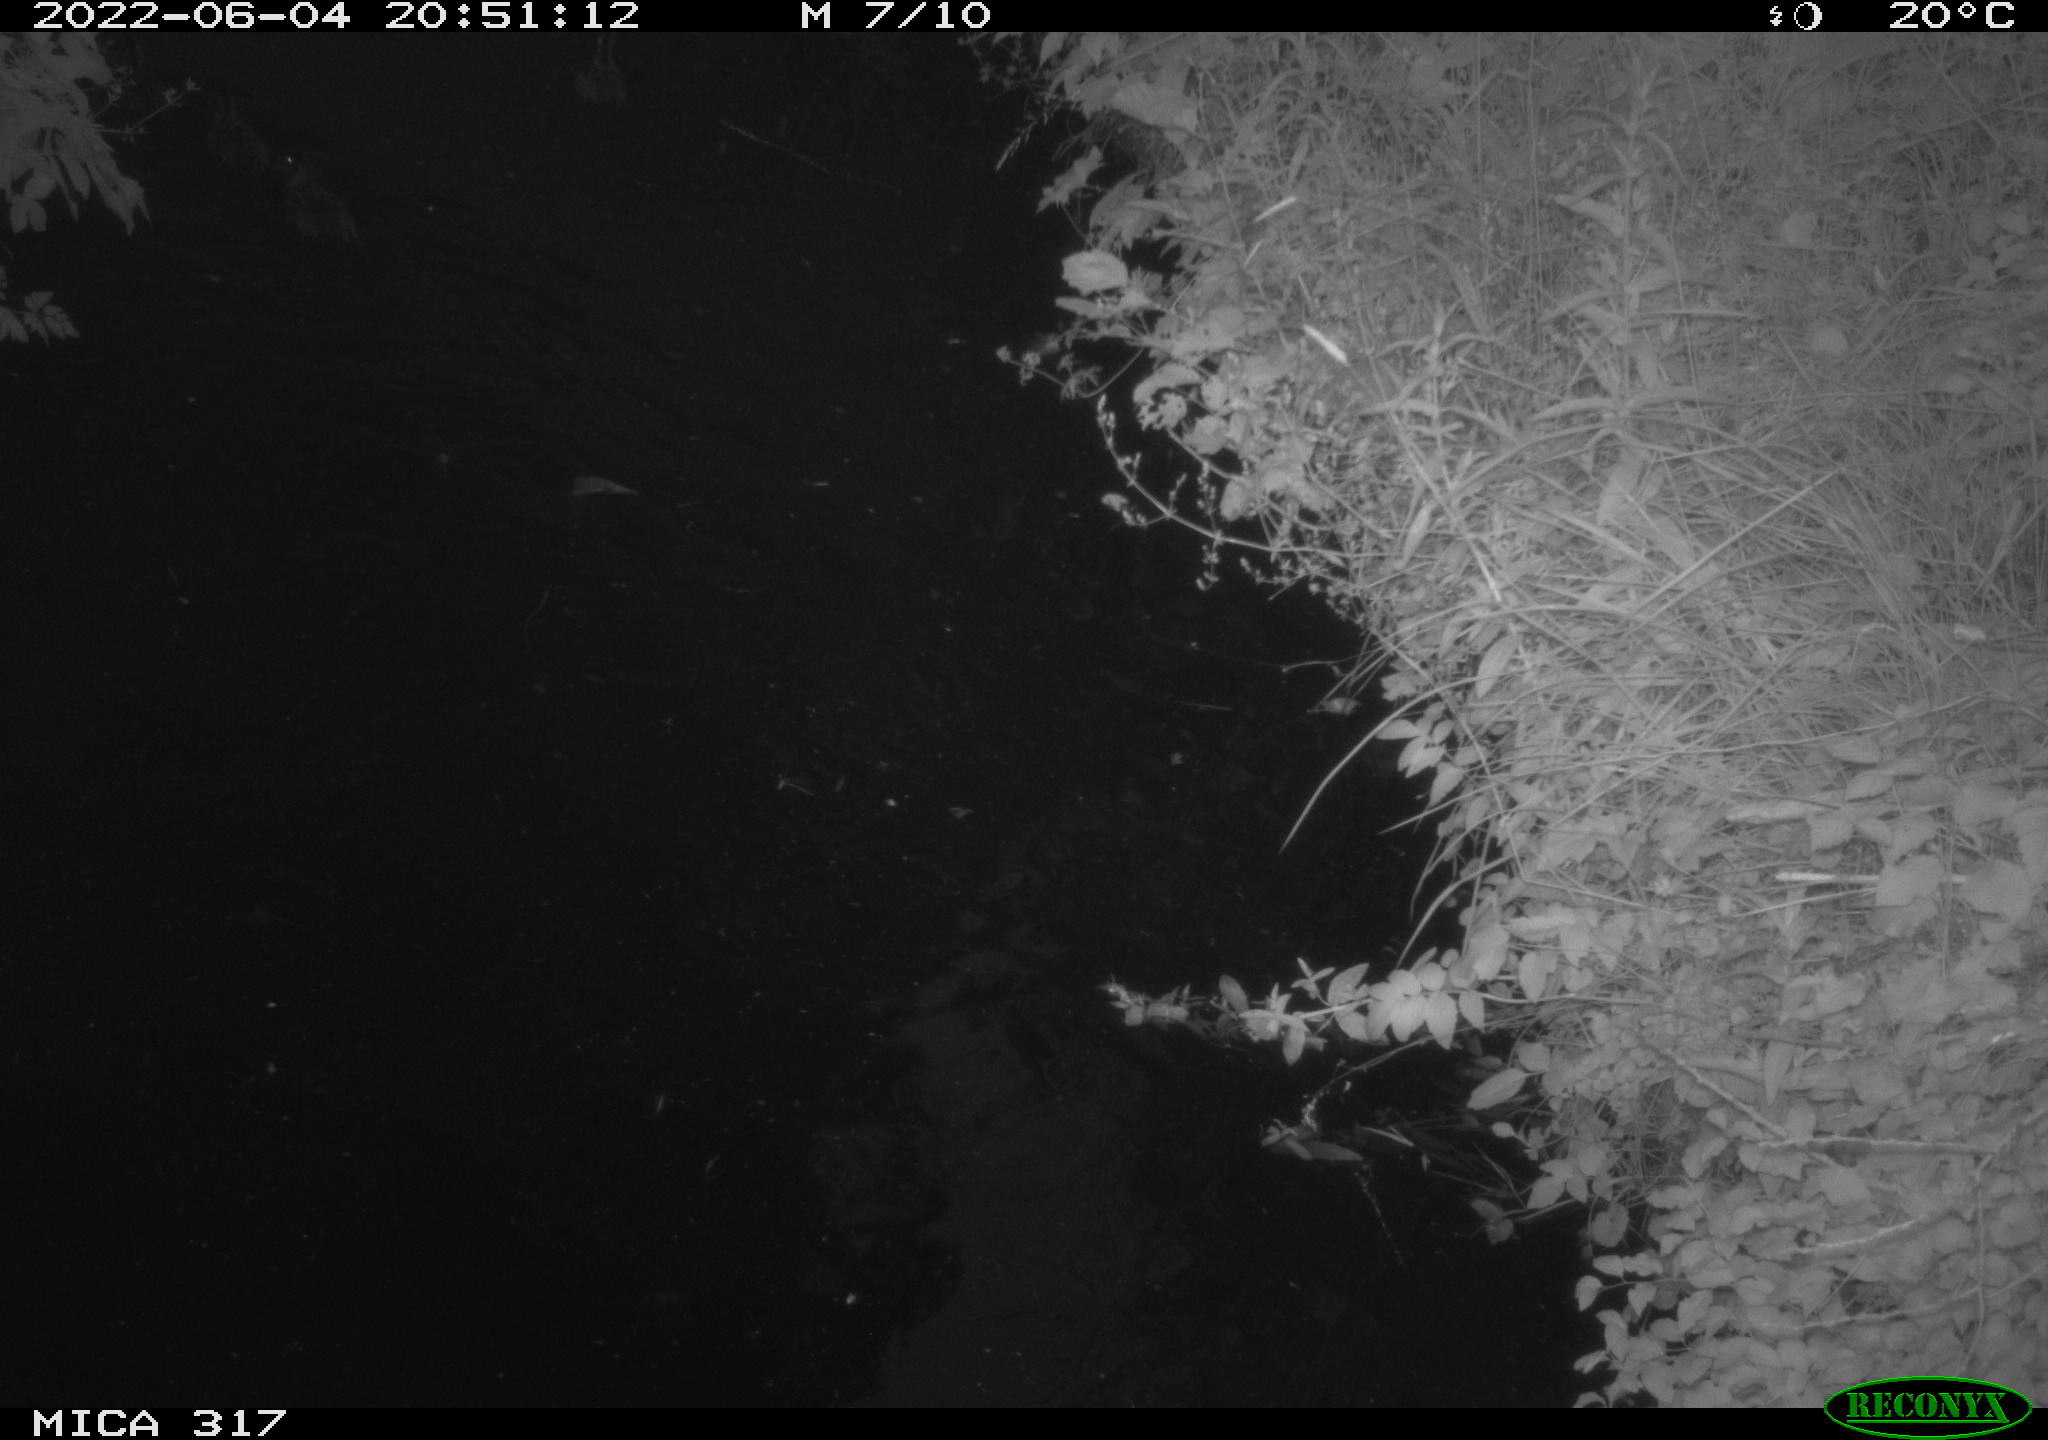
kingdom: Animalia
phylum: Chordata
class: Aves
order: Anseriformes
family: Anatidae
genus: Anas
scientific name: Anas
